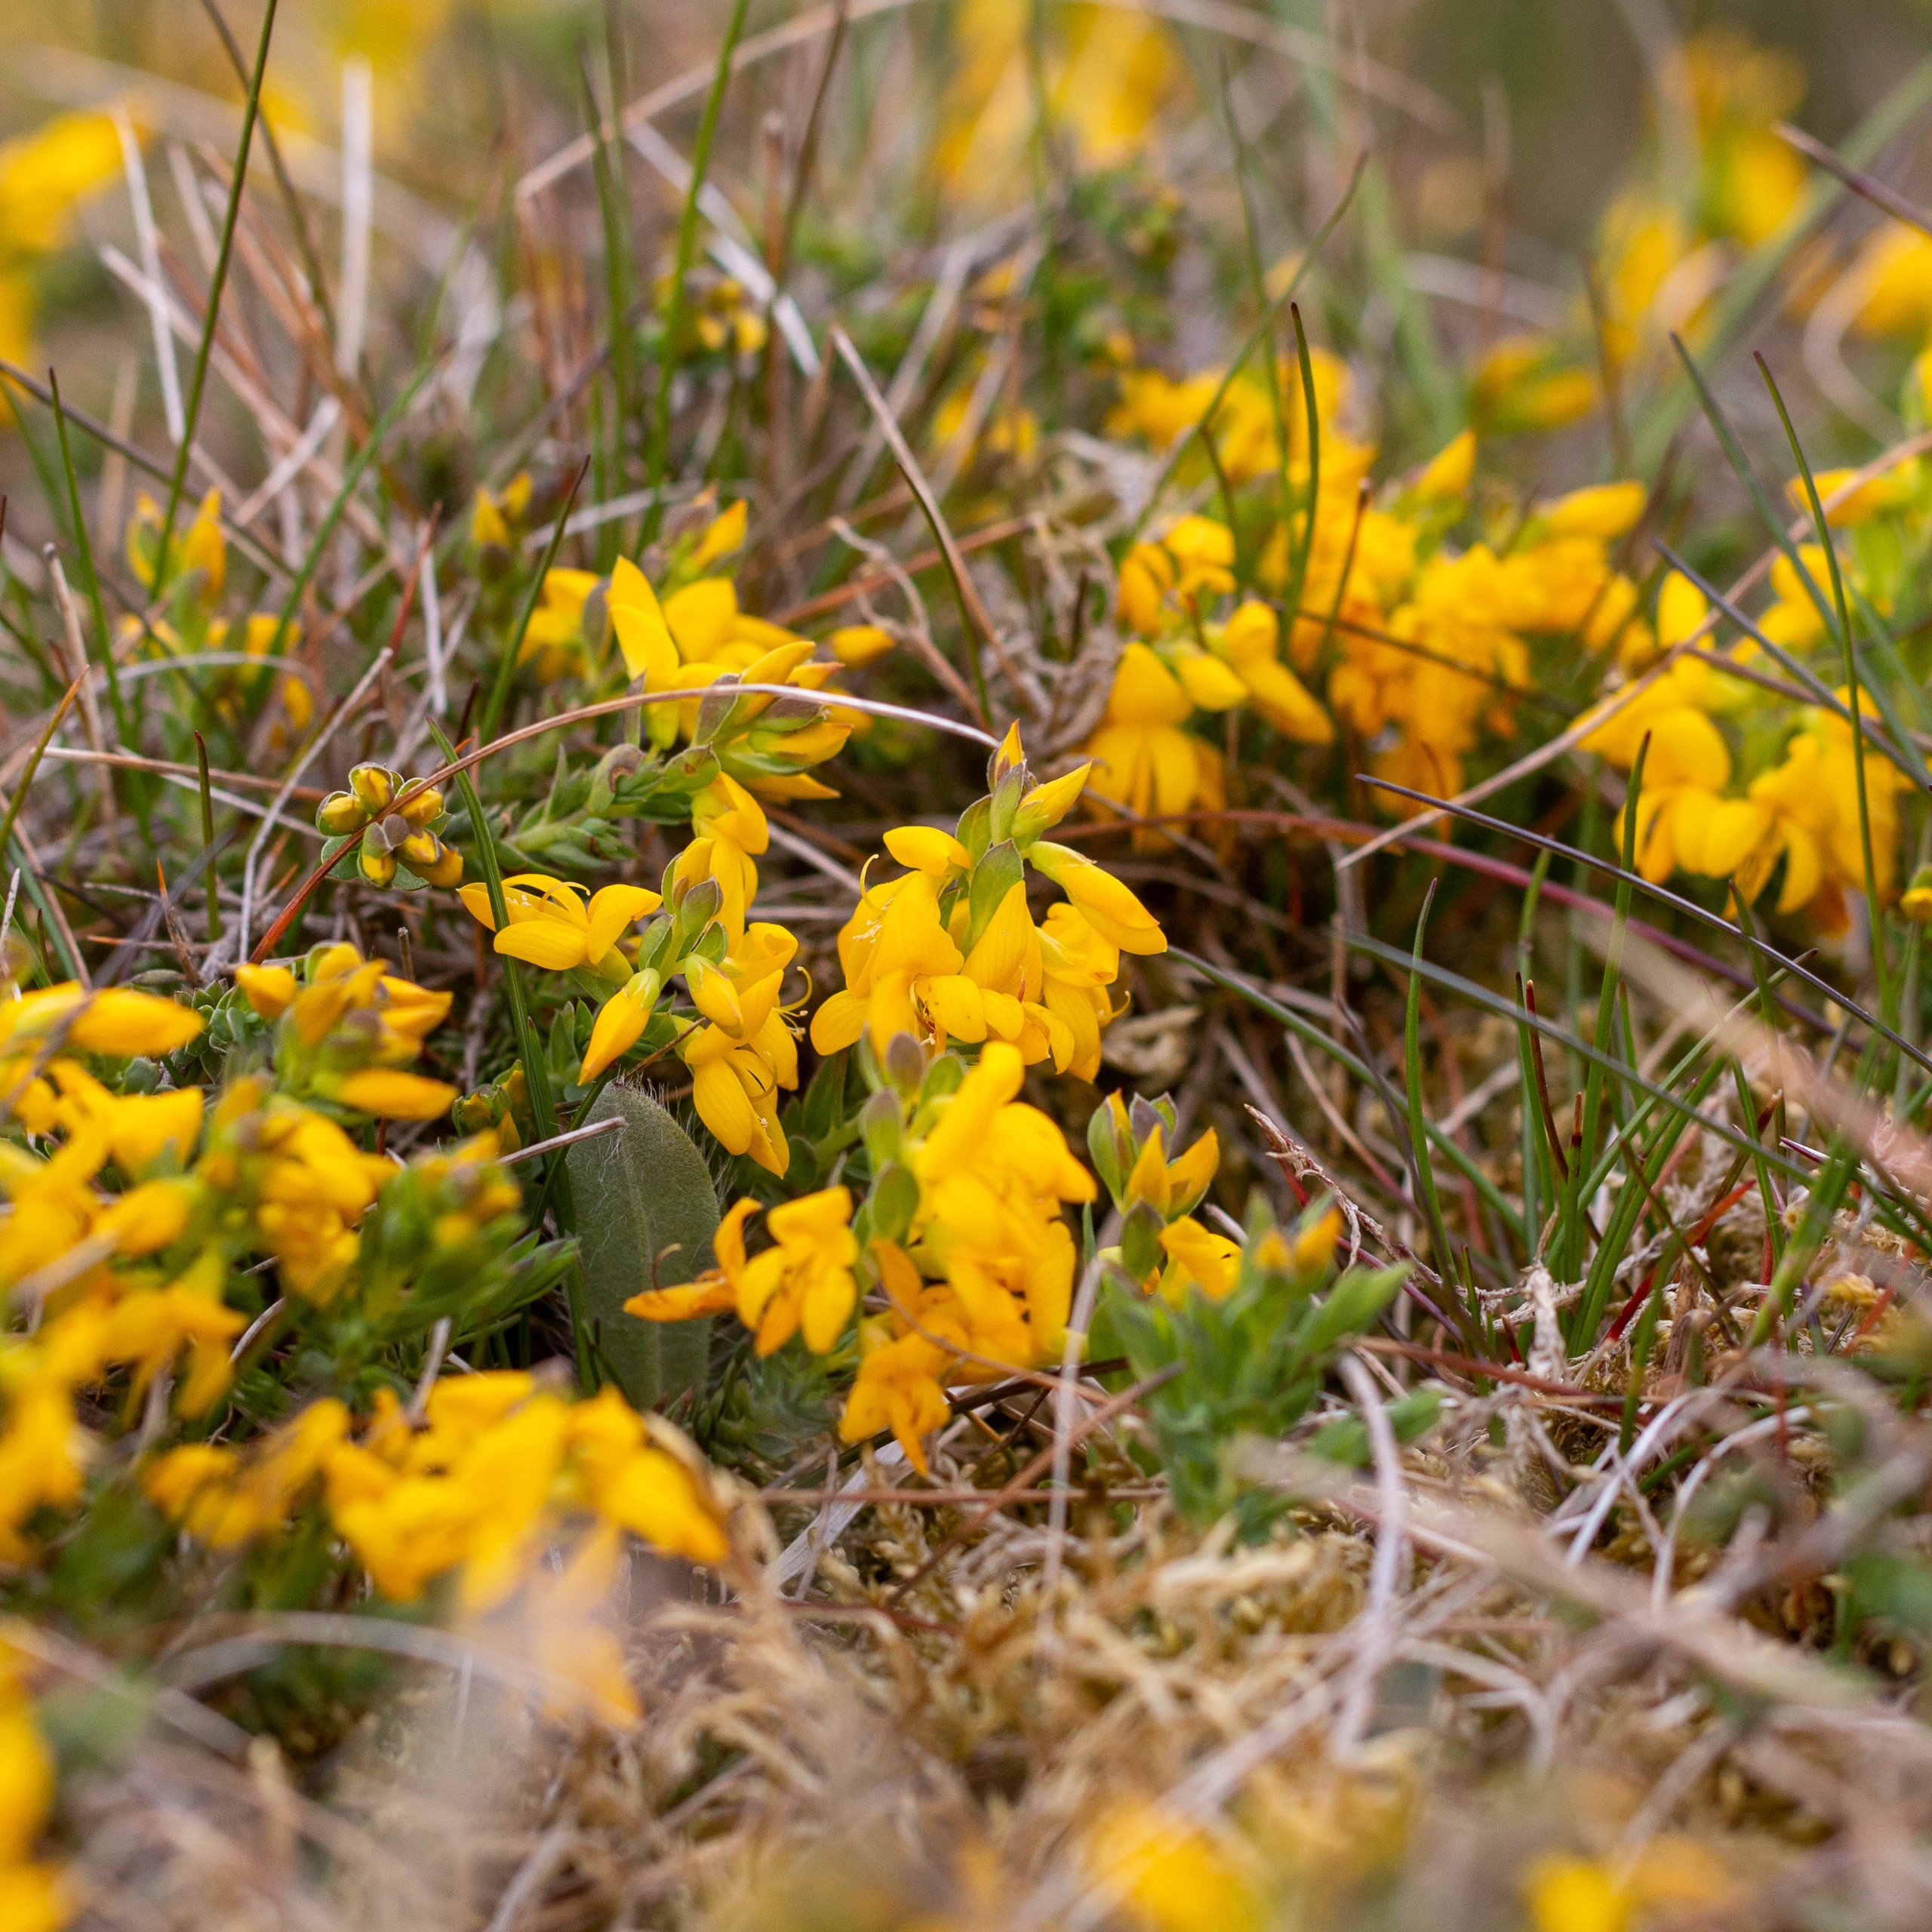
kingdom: Plantae
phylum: Tracheophyta
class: Magnoliopsida
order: Fabales
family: Fabaceae
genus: Genista
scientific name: Genista anglica
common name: Engelsk visse
